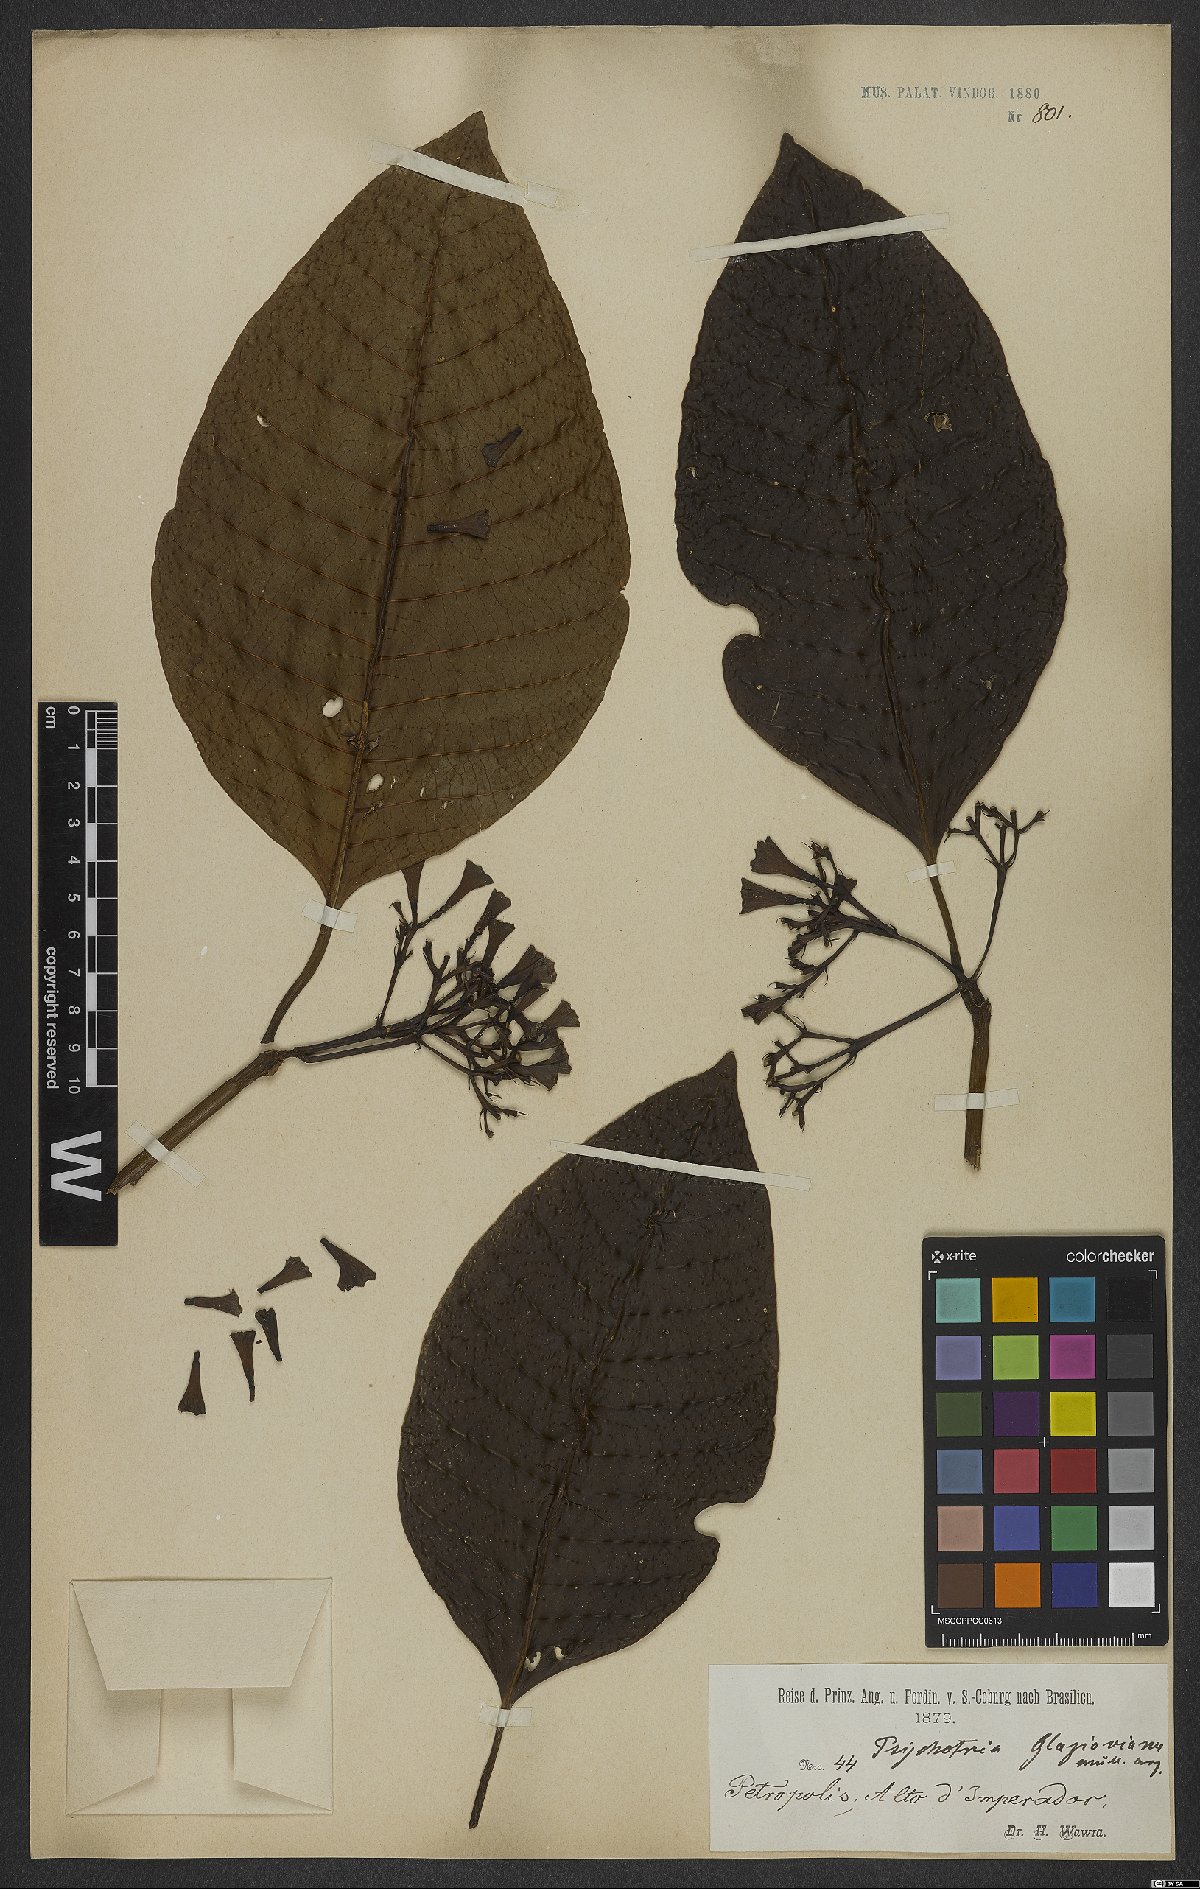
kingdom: Plantae
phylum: Tracheophyta
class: Magnoliopsida
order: Gentianales
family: Rubiaceae
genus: Psychotria
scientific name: Psychotria glaziovii
